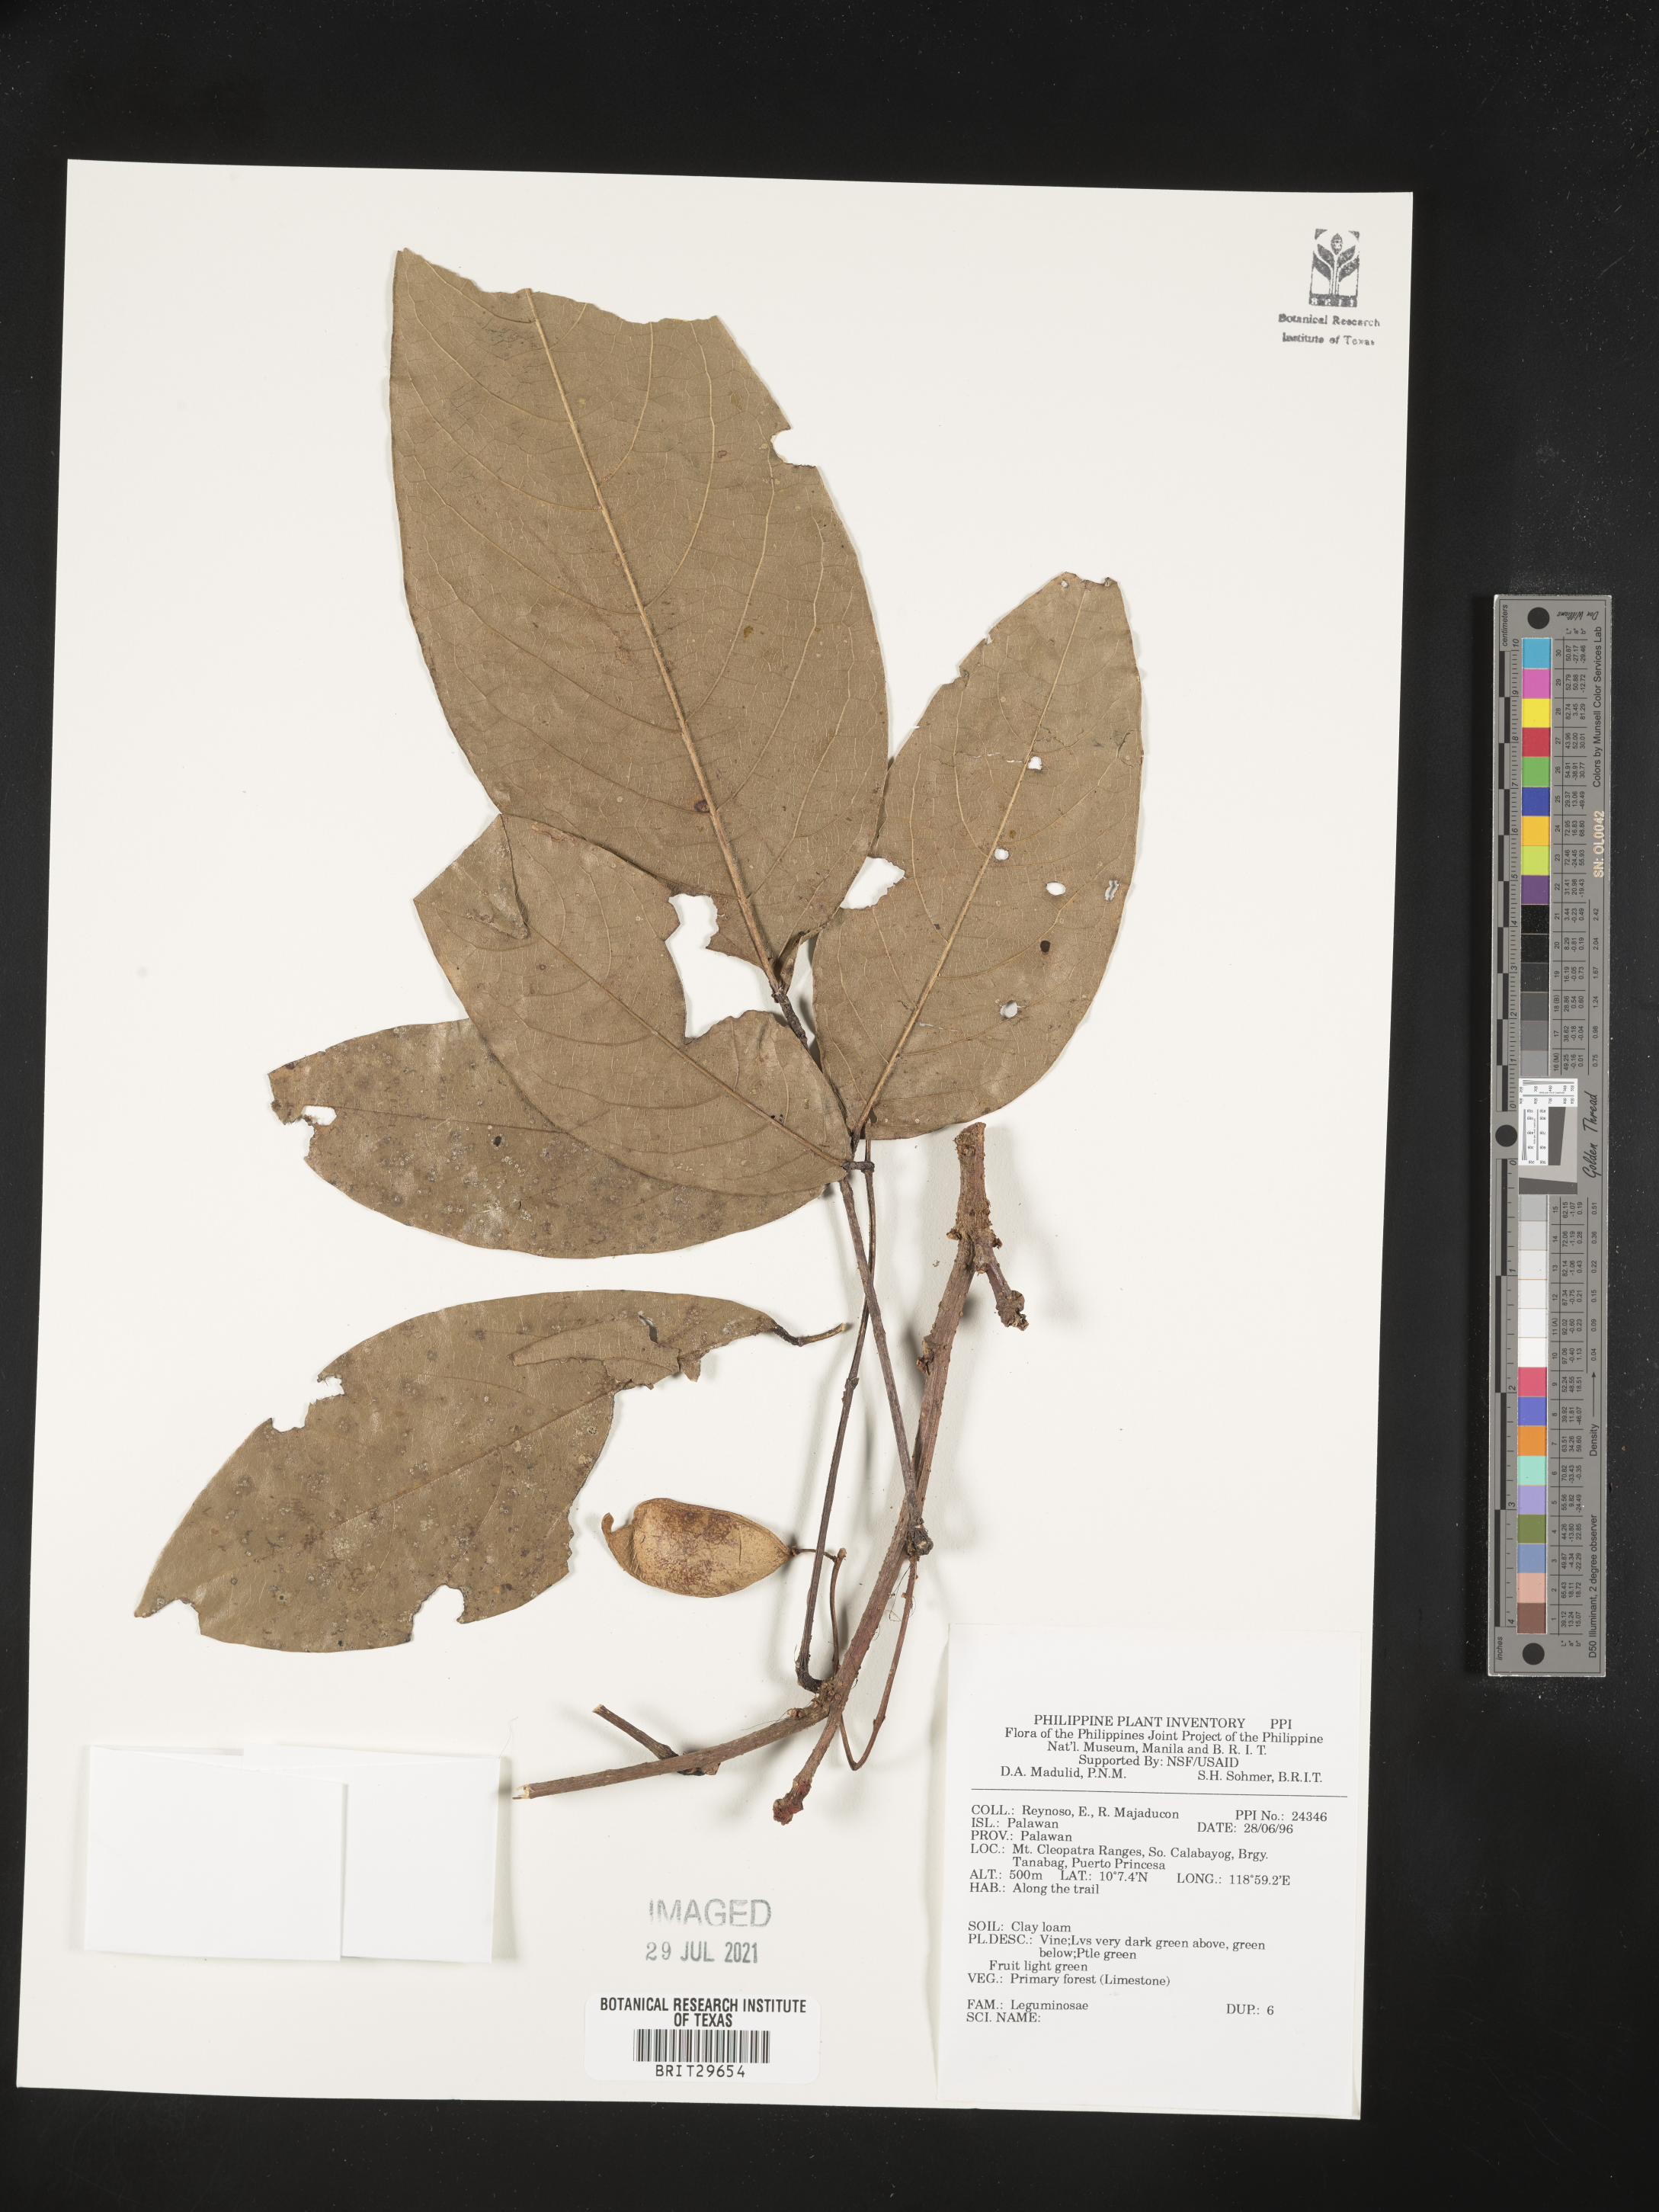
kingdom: Plantae
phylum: Tracheophyta
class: Magnoliopsida
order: Fabales
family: Fabaceae
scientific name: Fabaceae
